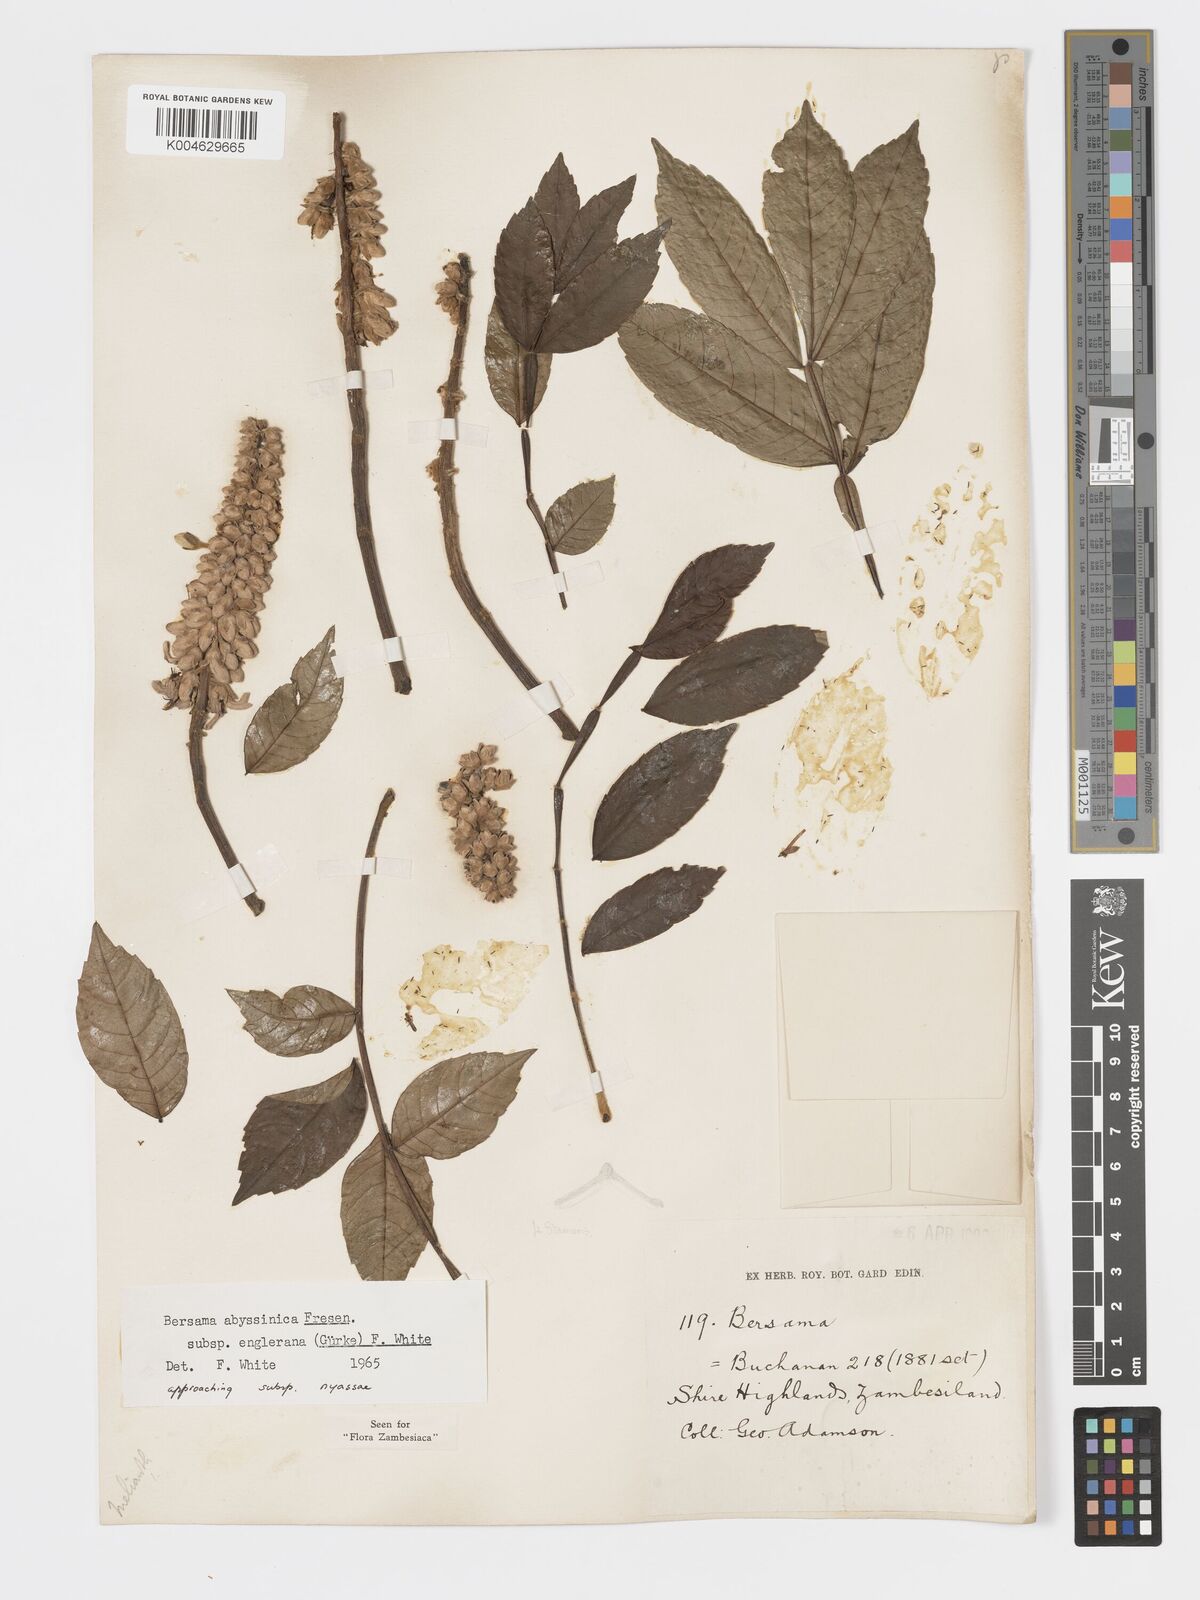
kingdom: Plantae
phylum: Tracheophyta
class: Magnoliopsida
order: Geraniales
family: Melianthaceae
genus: Bersama
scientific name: Bersama abyssinica
